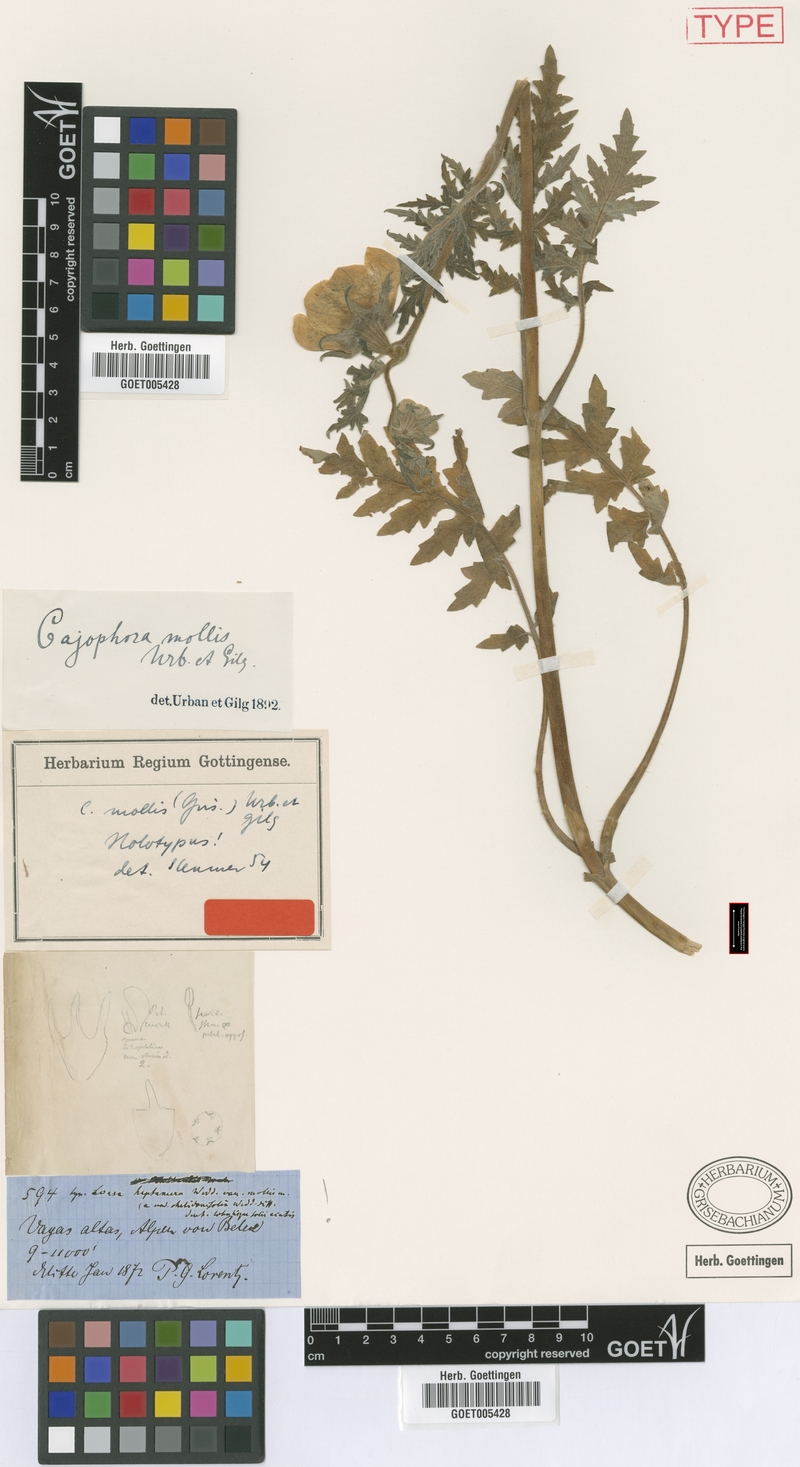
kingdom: Plantae
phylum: Tracheophyta
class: Magnoliopsida
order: Cornales
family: Loasaceae
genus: Caiophora
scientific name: Caiophora mollis
